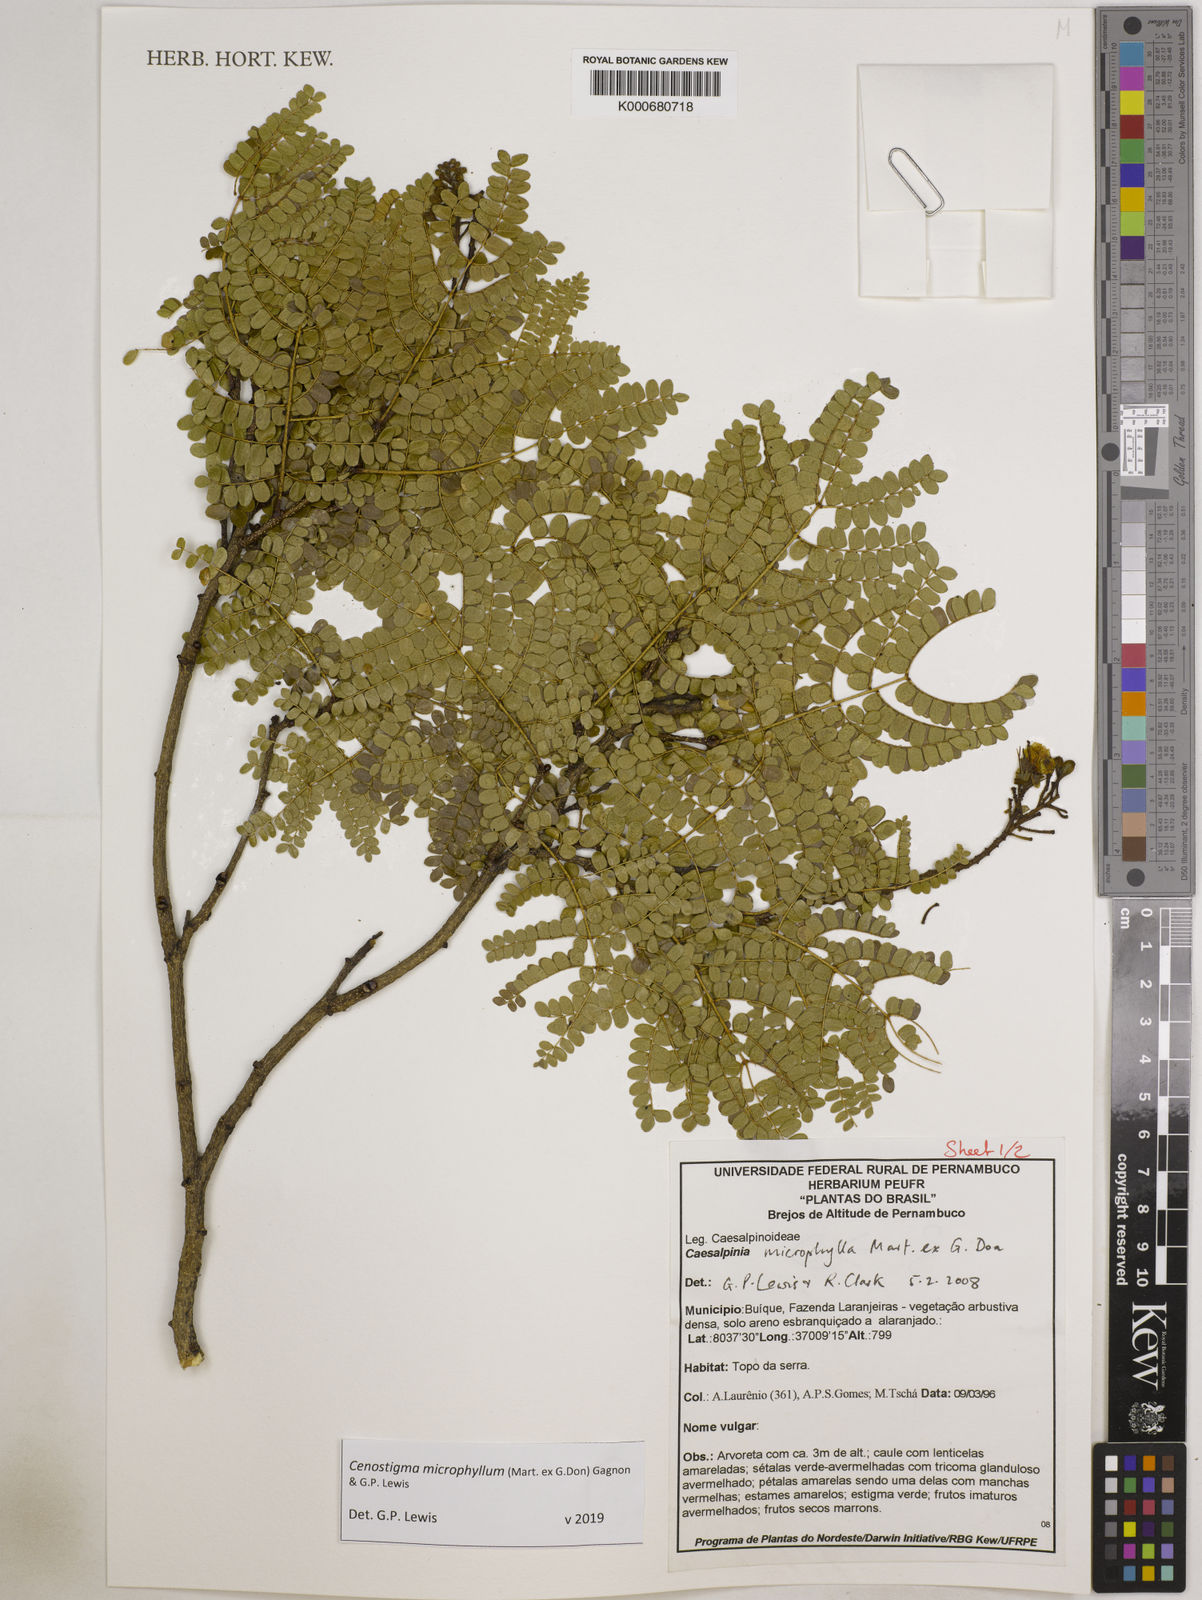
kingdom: Plantae
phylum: Tracheophyta
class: Magnoliopsida
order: Fabales
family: Fabaceae
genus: Cenostigma
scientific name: Cenostigma microphyllum
